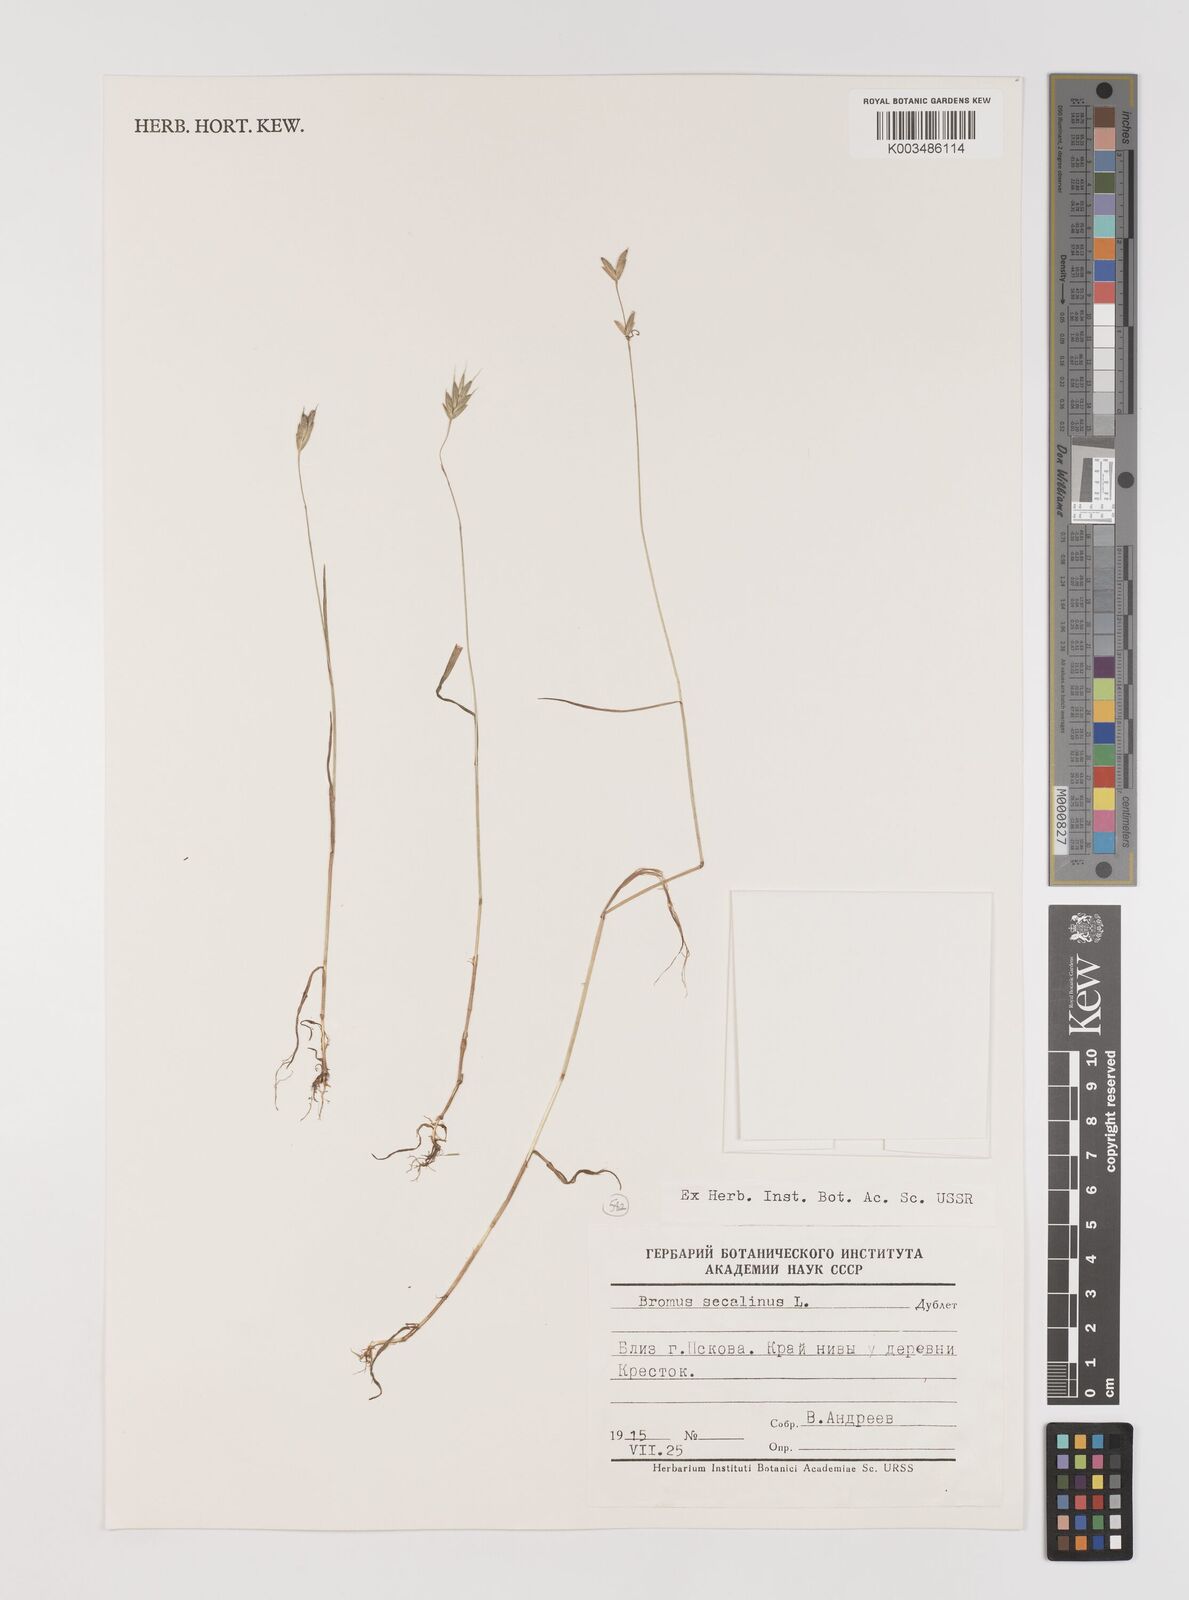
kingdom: Plantae
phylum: Tracheophyta
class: Liliopsida
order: Poales
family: Poaceae
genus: Bromus
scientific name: Bromus secalinus
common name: Rye brome
